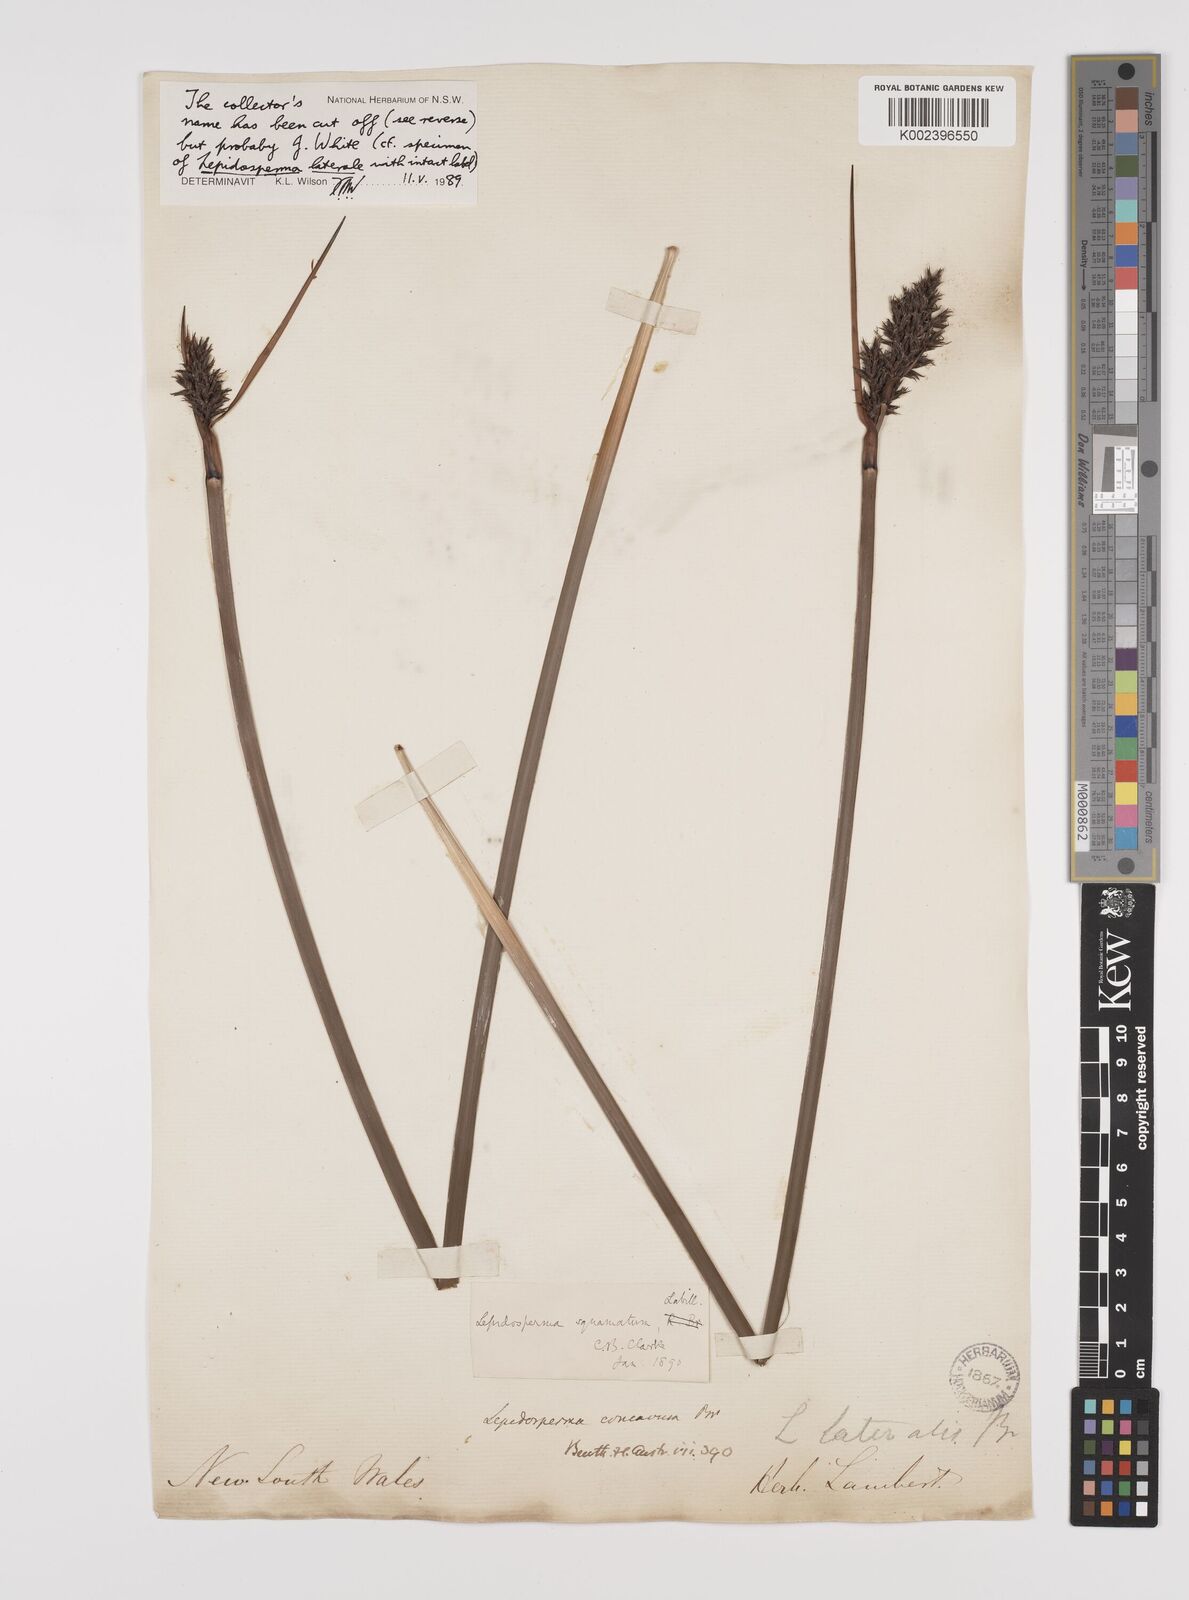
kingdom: Plantae
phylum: Tracheophyta
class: Liliopsida
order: Poales
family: Cyperaceae
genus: Lepidosperma
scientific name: Lepidosperma concavum
